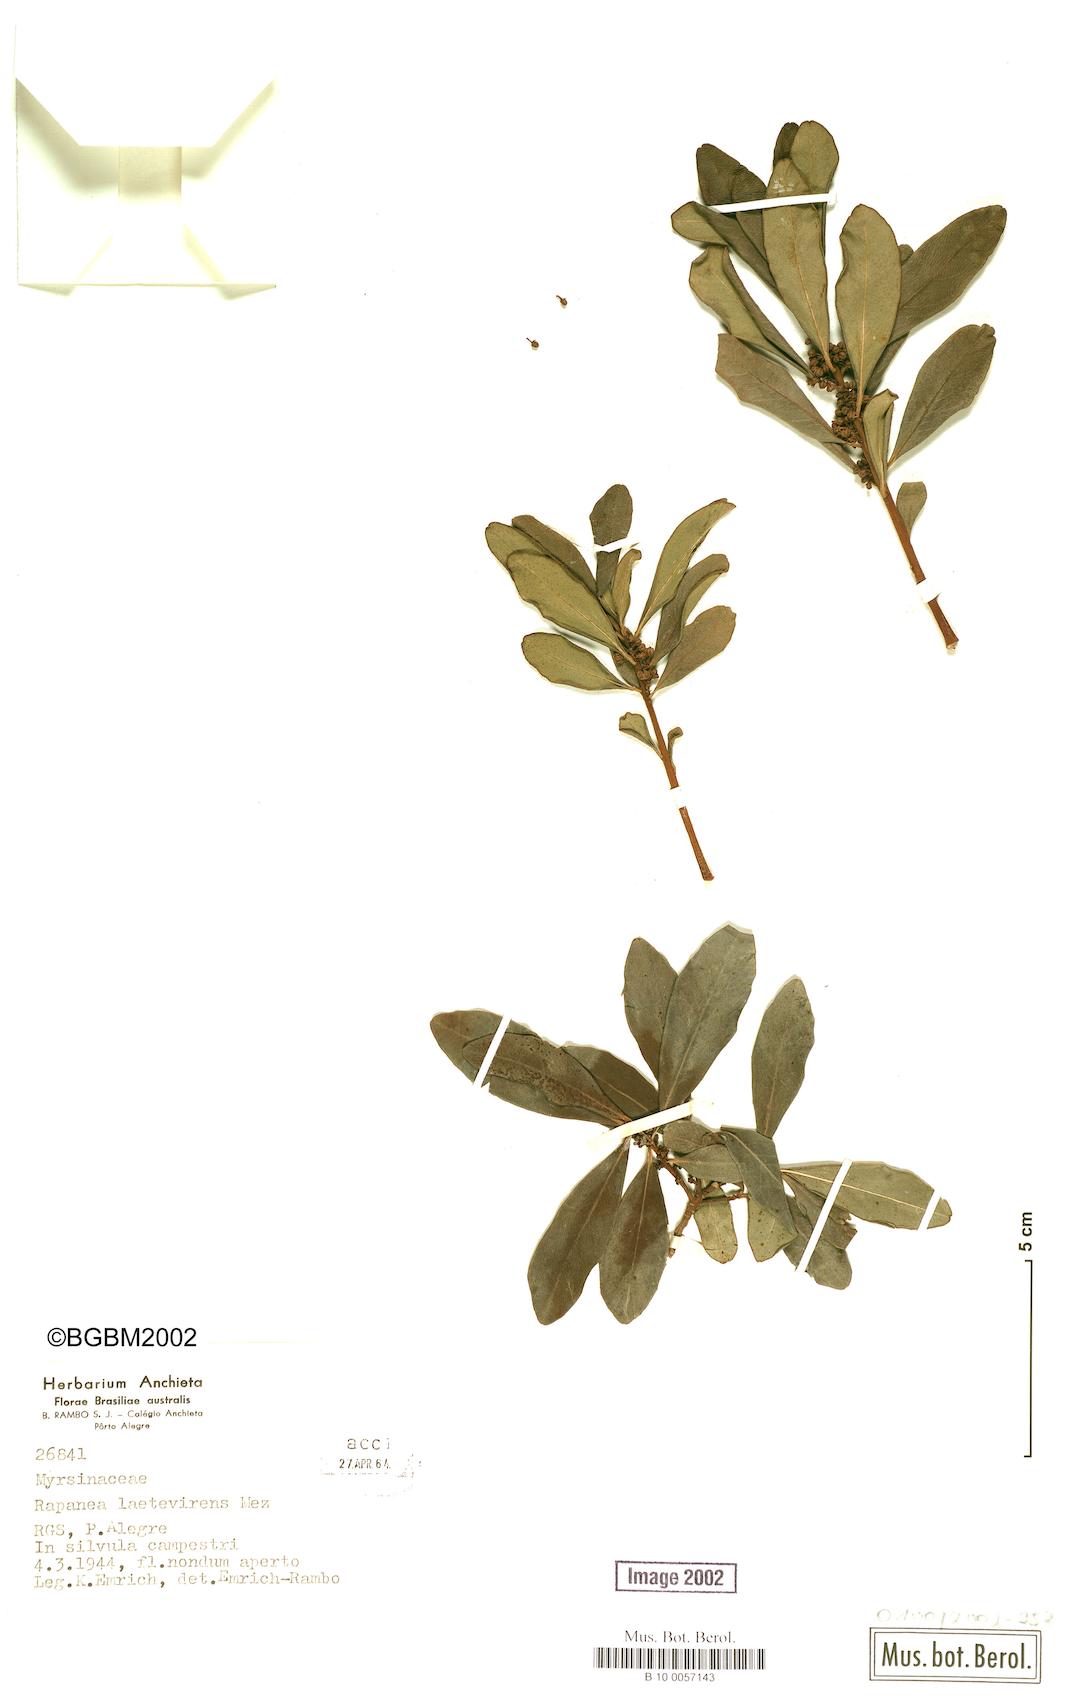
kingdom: Plantae
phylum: Tracheophyta
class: Magnoliopsida
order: Ericales
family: Primulaceae
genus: Myrsine
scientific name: Myrsine laetevirens
